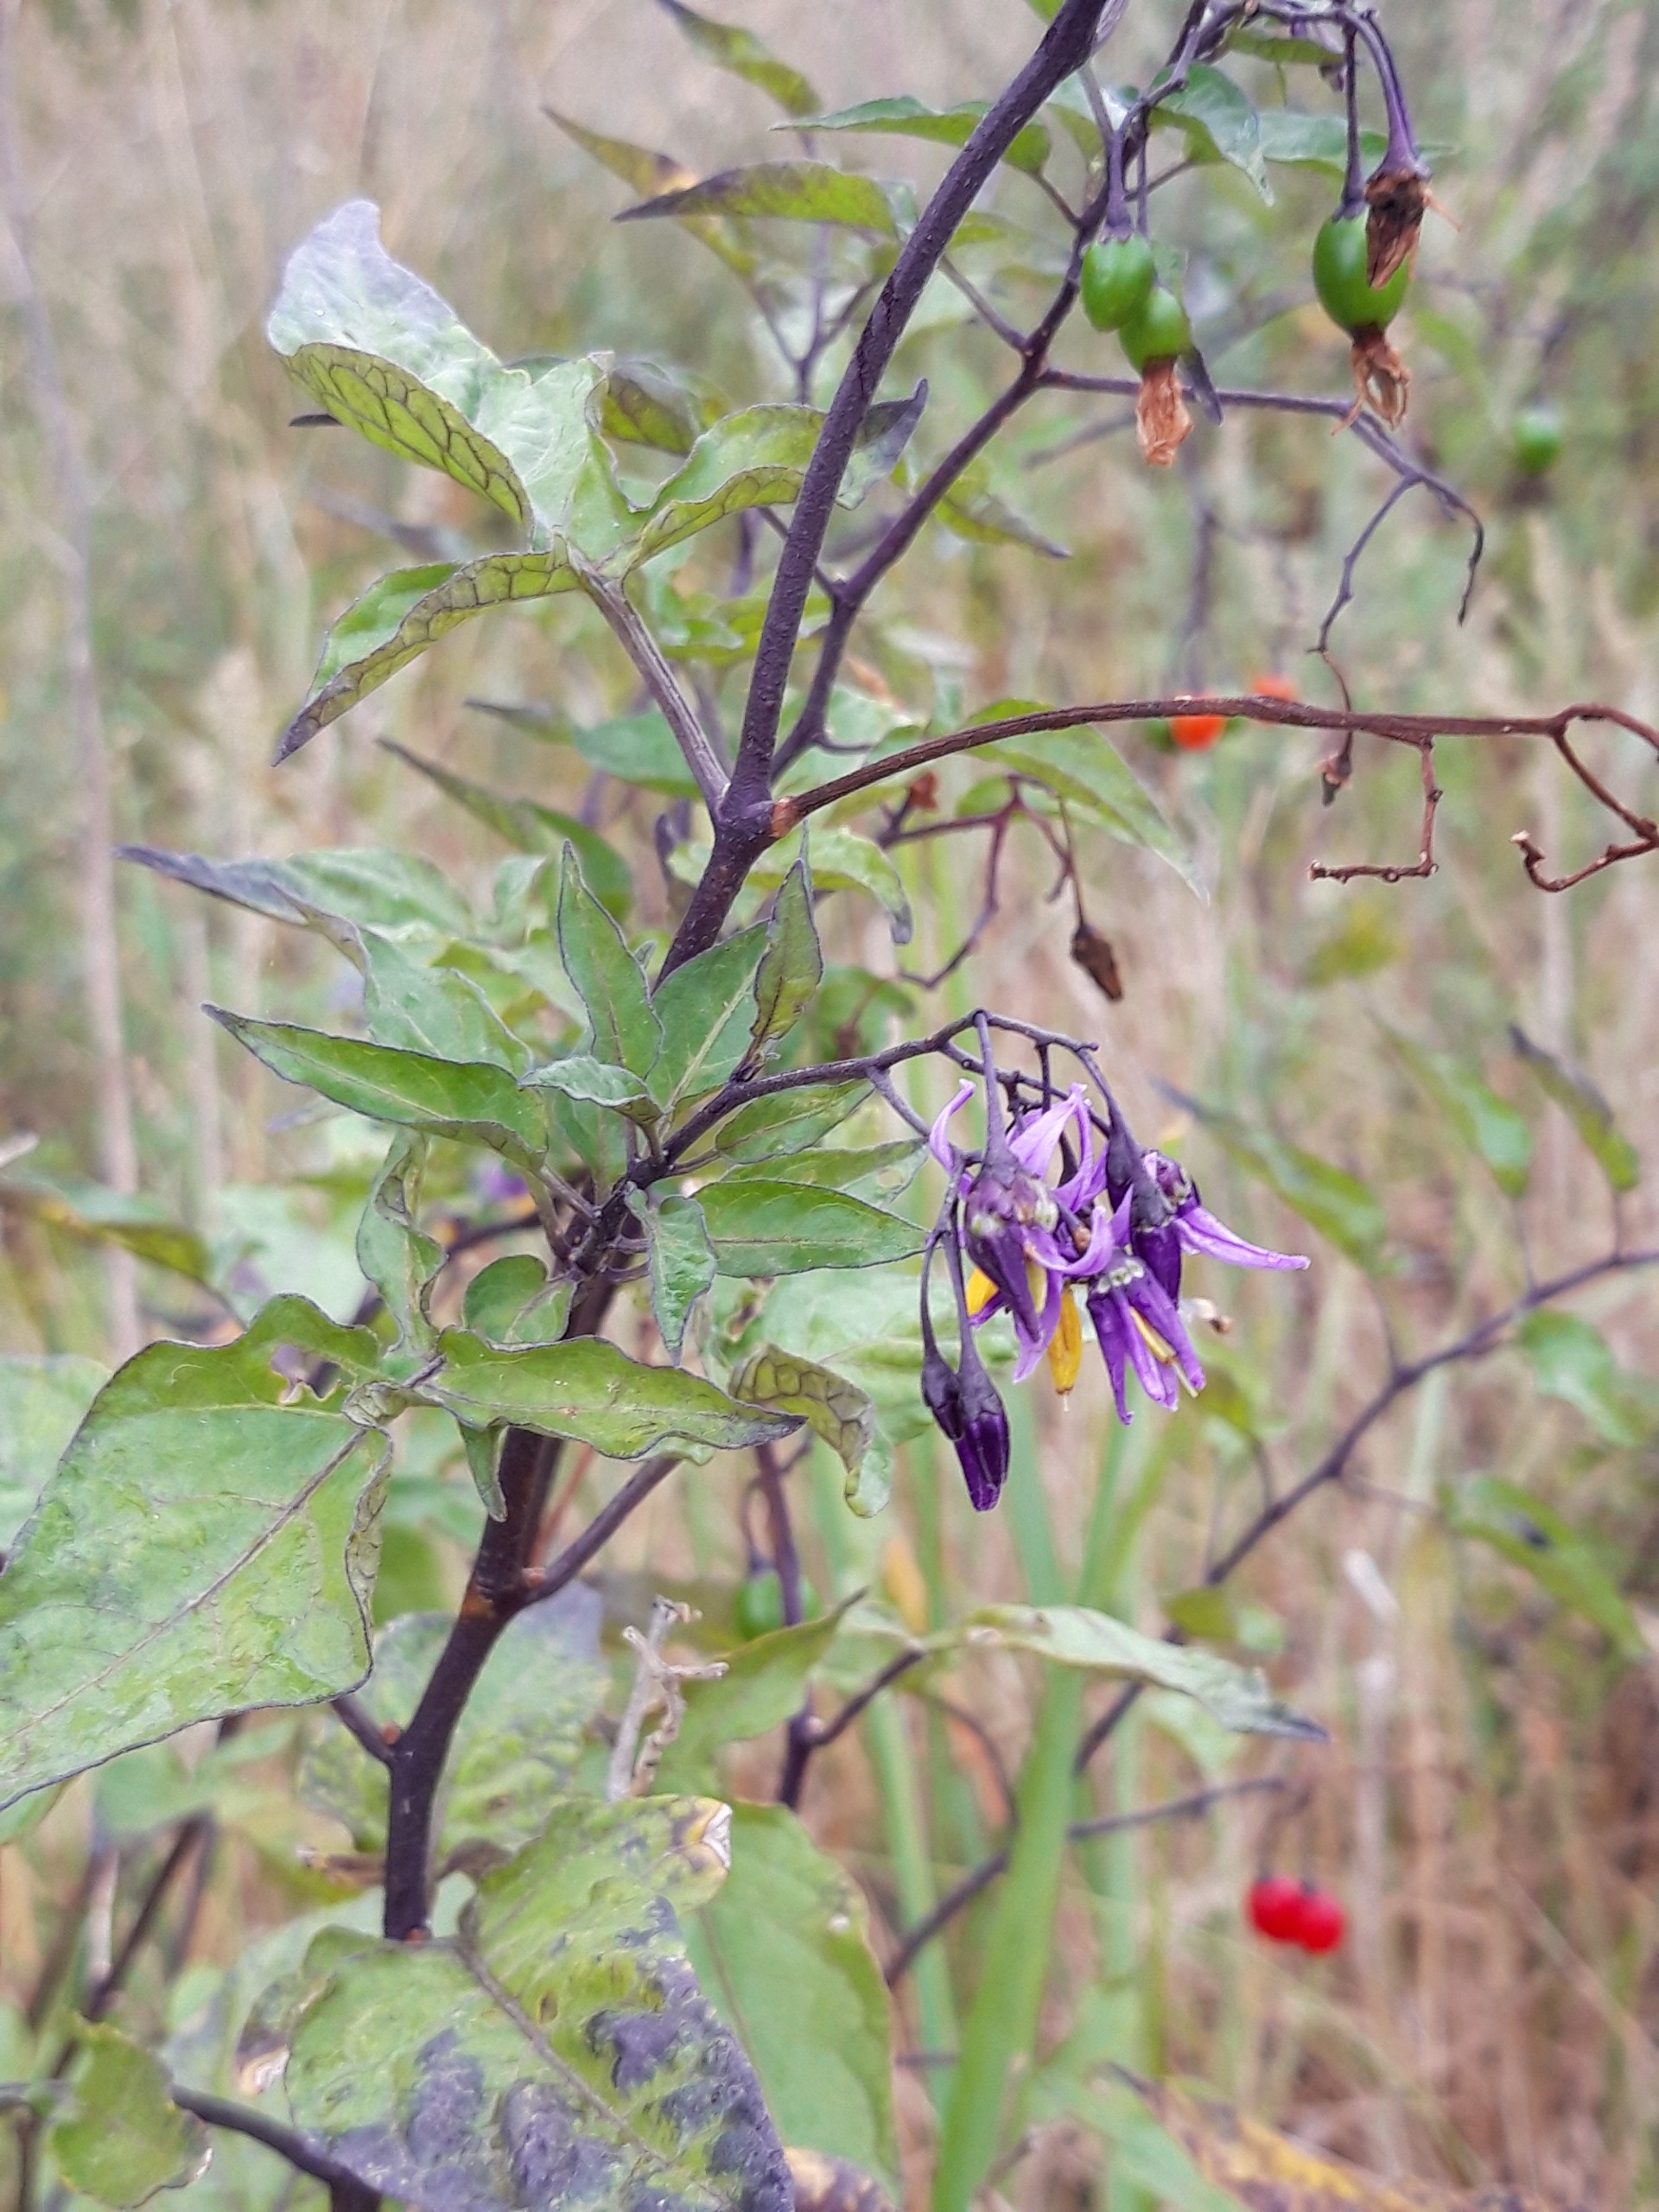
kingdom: Plantae
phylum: Tracheophyta
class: Magnoliopsida
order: Solanales
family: Solanaceae
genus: Solanum
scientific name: Solanum dulcamara
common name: Bittersød natskygge
